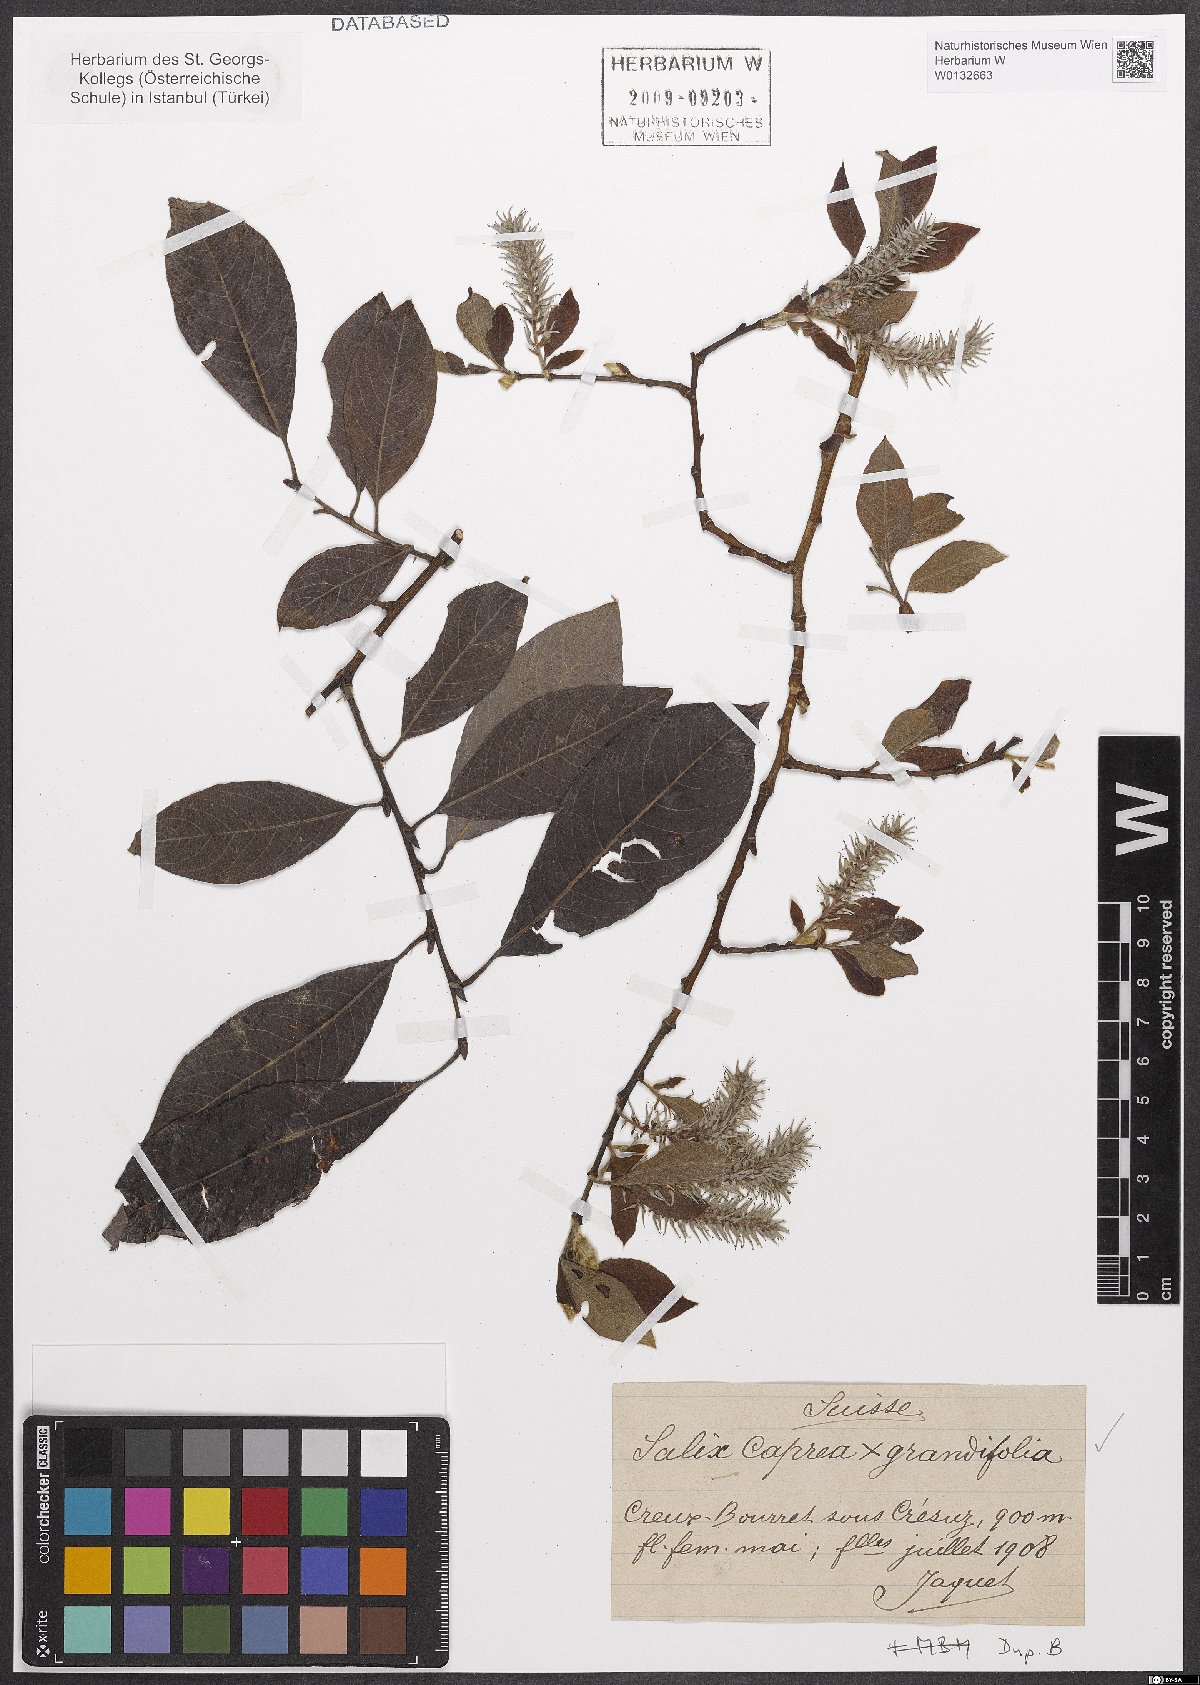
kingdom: Plantae
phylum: Tracheophyta
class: Magnoliopsida
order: Malpighiales
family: Salicaceae
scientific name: Salicaceae
